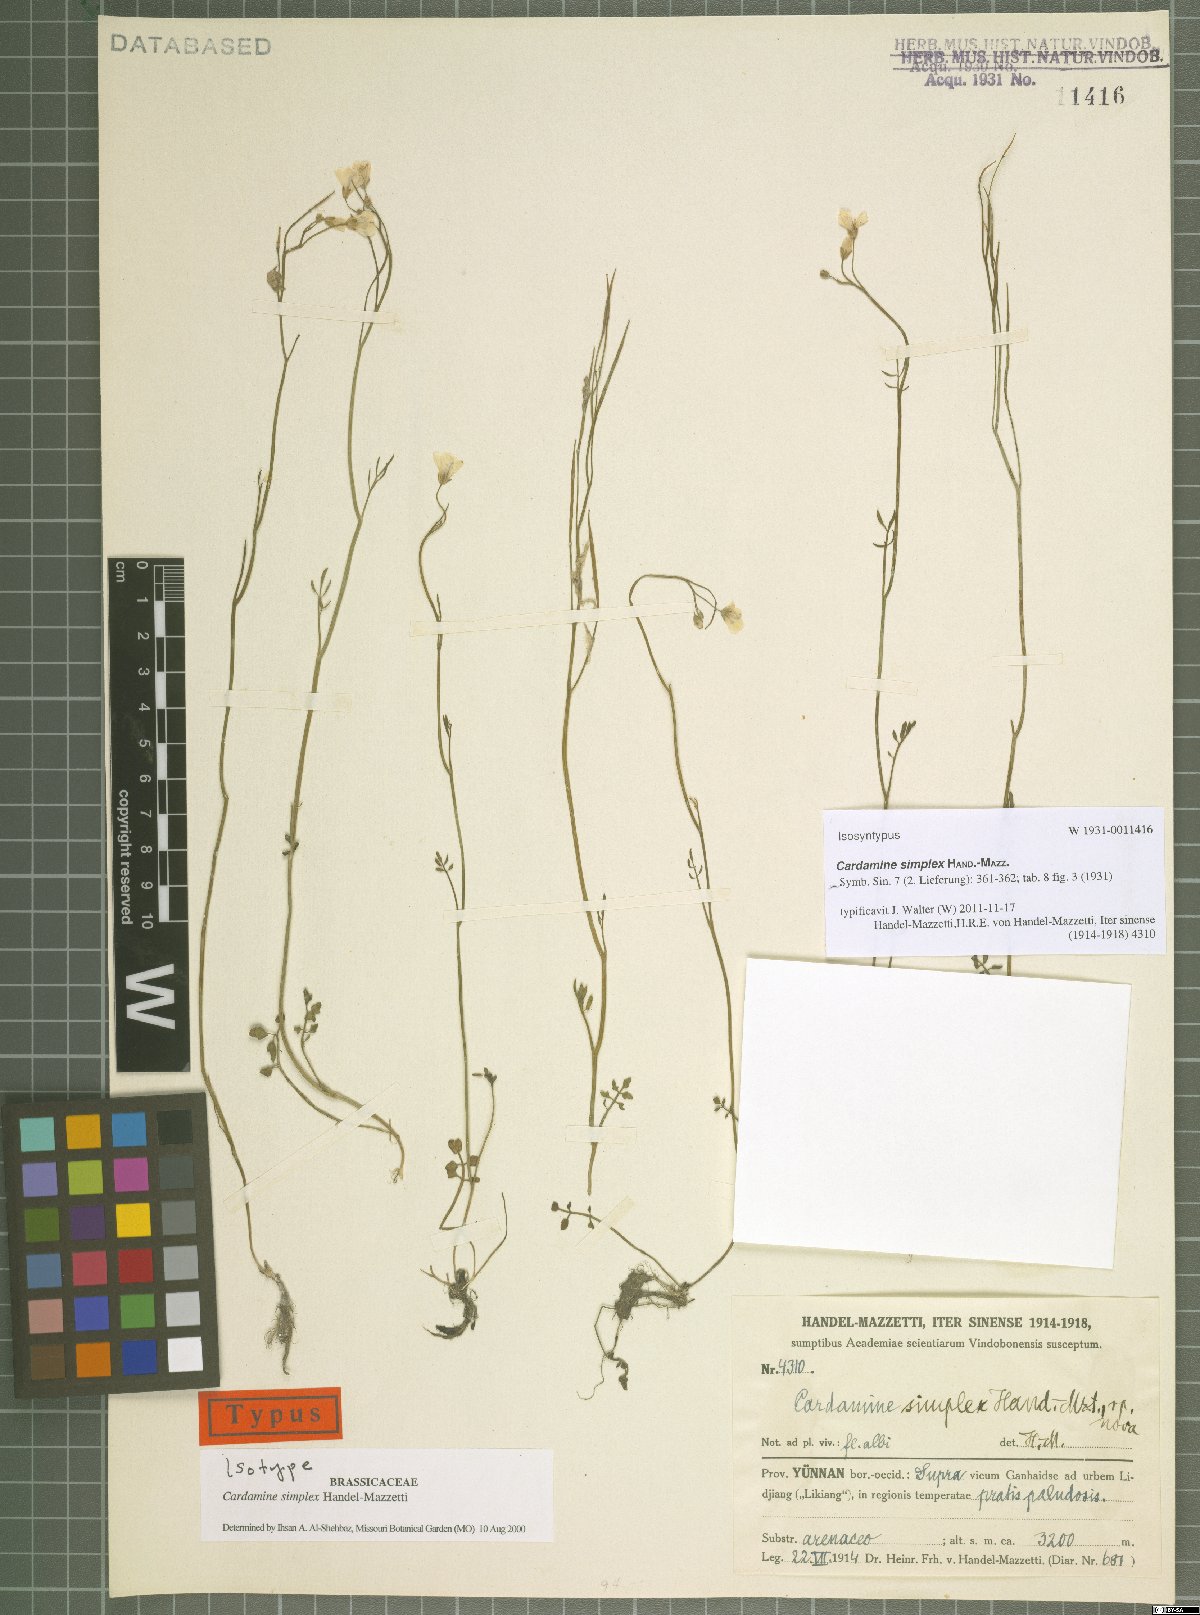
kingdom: Plantae
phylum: Tracheophyta
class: Magnoliopsida
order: Brassicales
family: Brassicaceae
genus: Cardamine
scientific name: Cardamine simplex
